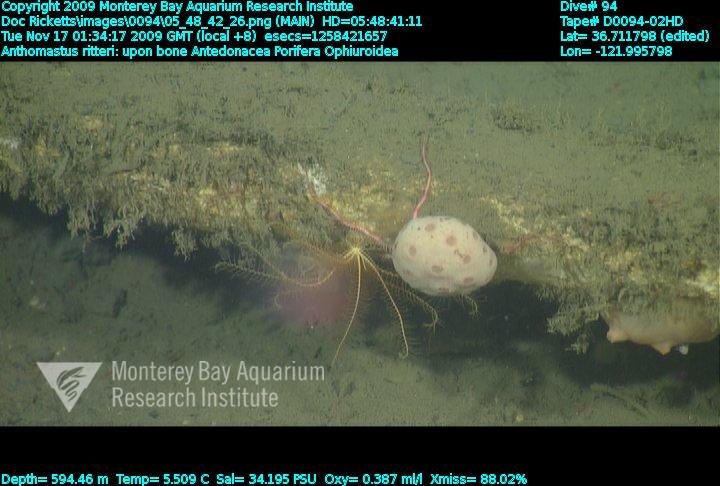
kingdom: Animalia
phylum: Porifera
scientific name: Porifera
